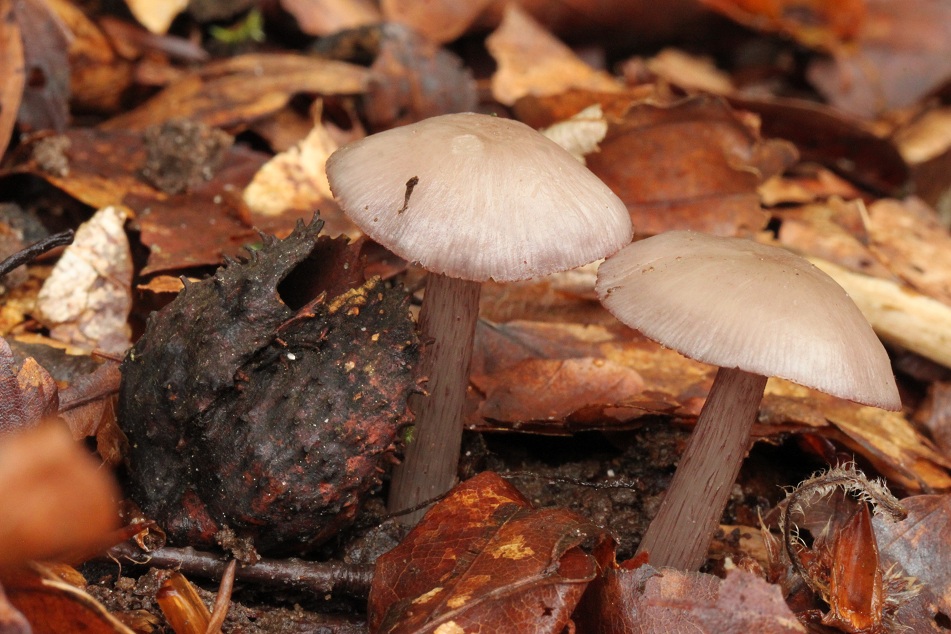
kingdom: Fungi
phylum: Basidiomycota
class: Agaricomycetes
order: Agaricales
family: Mycenaceae
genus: Mycena
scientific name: Mycena pelianthina
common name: mørkbladet huesvamp
